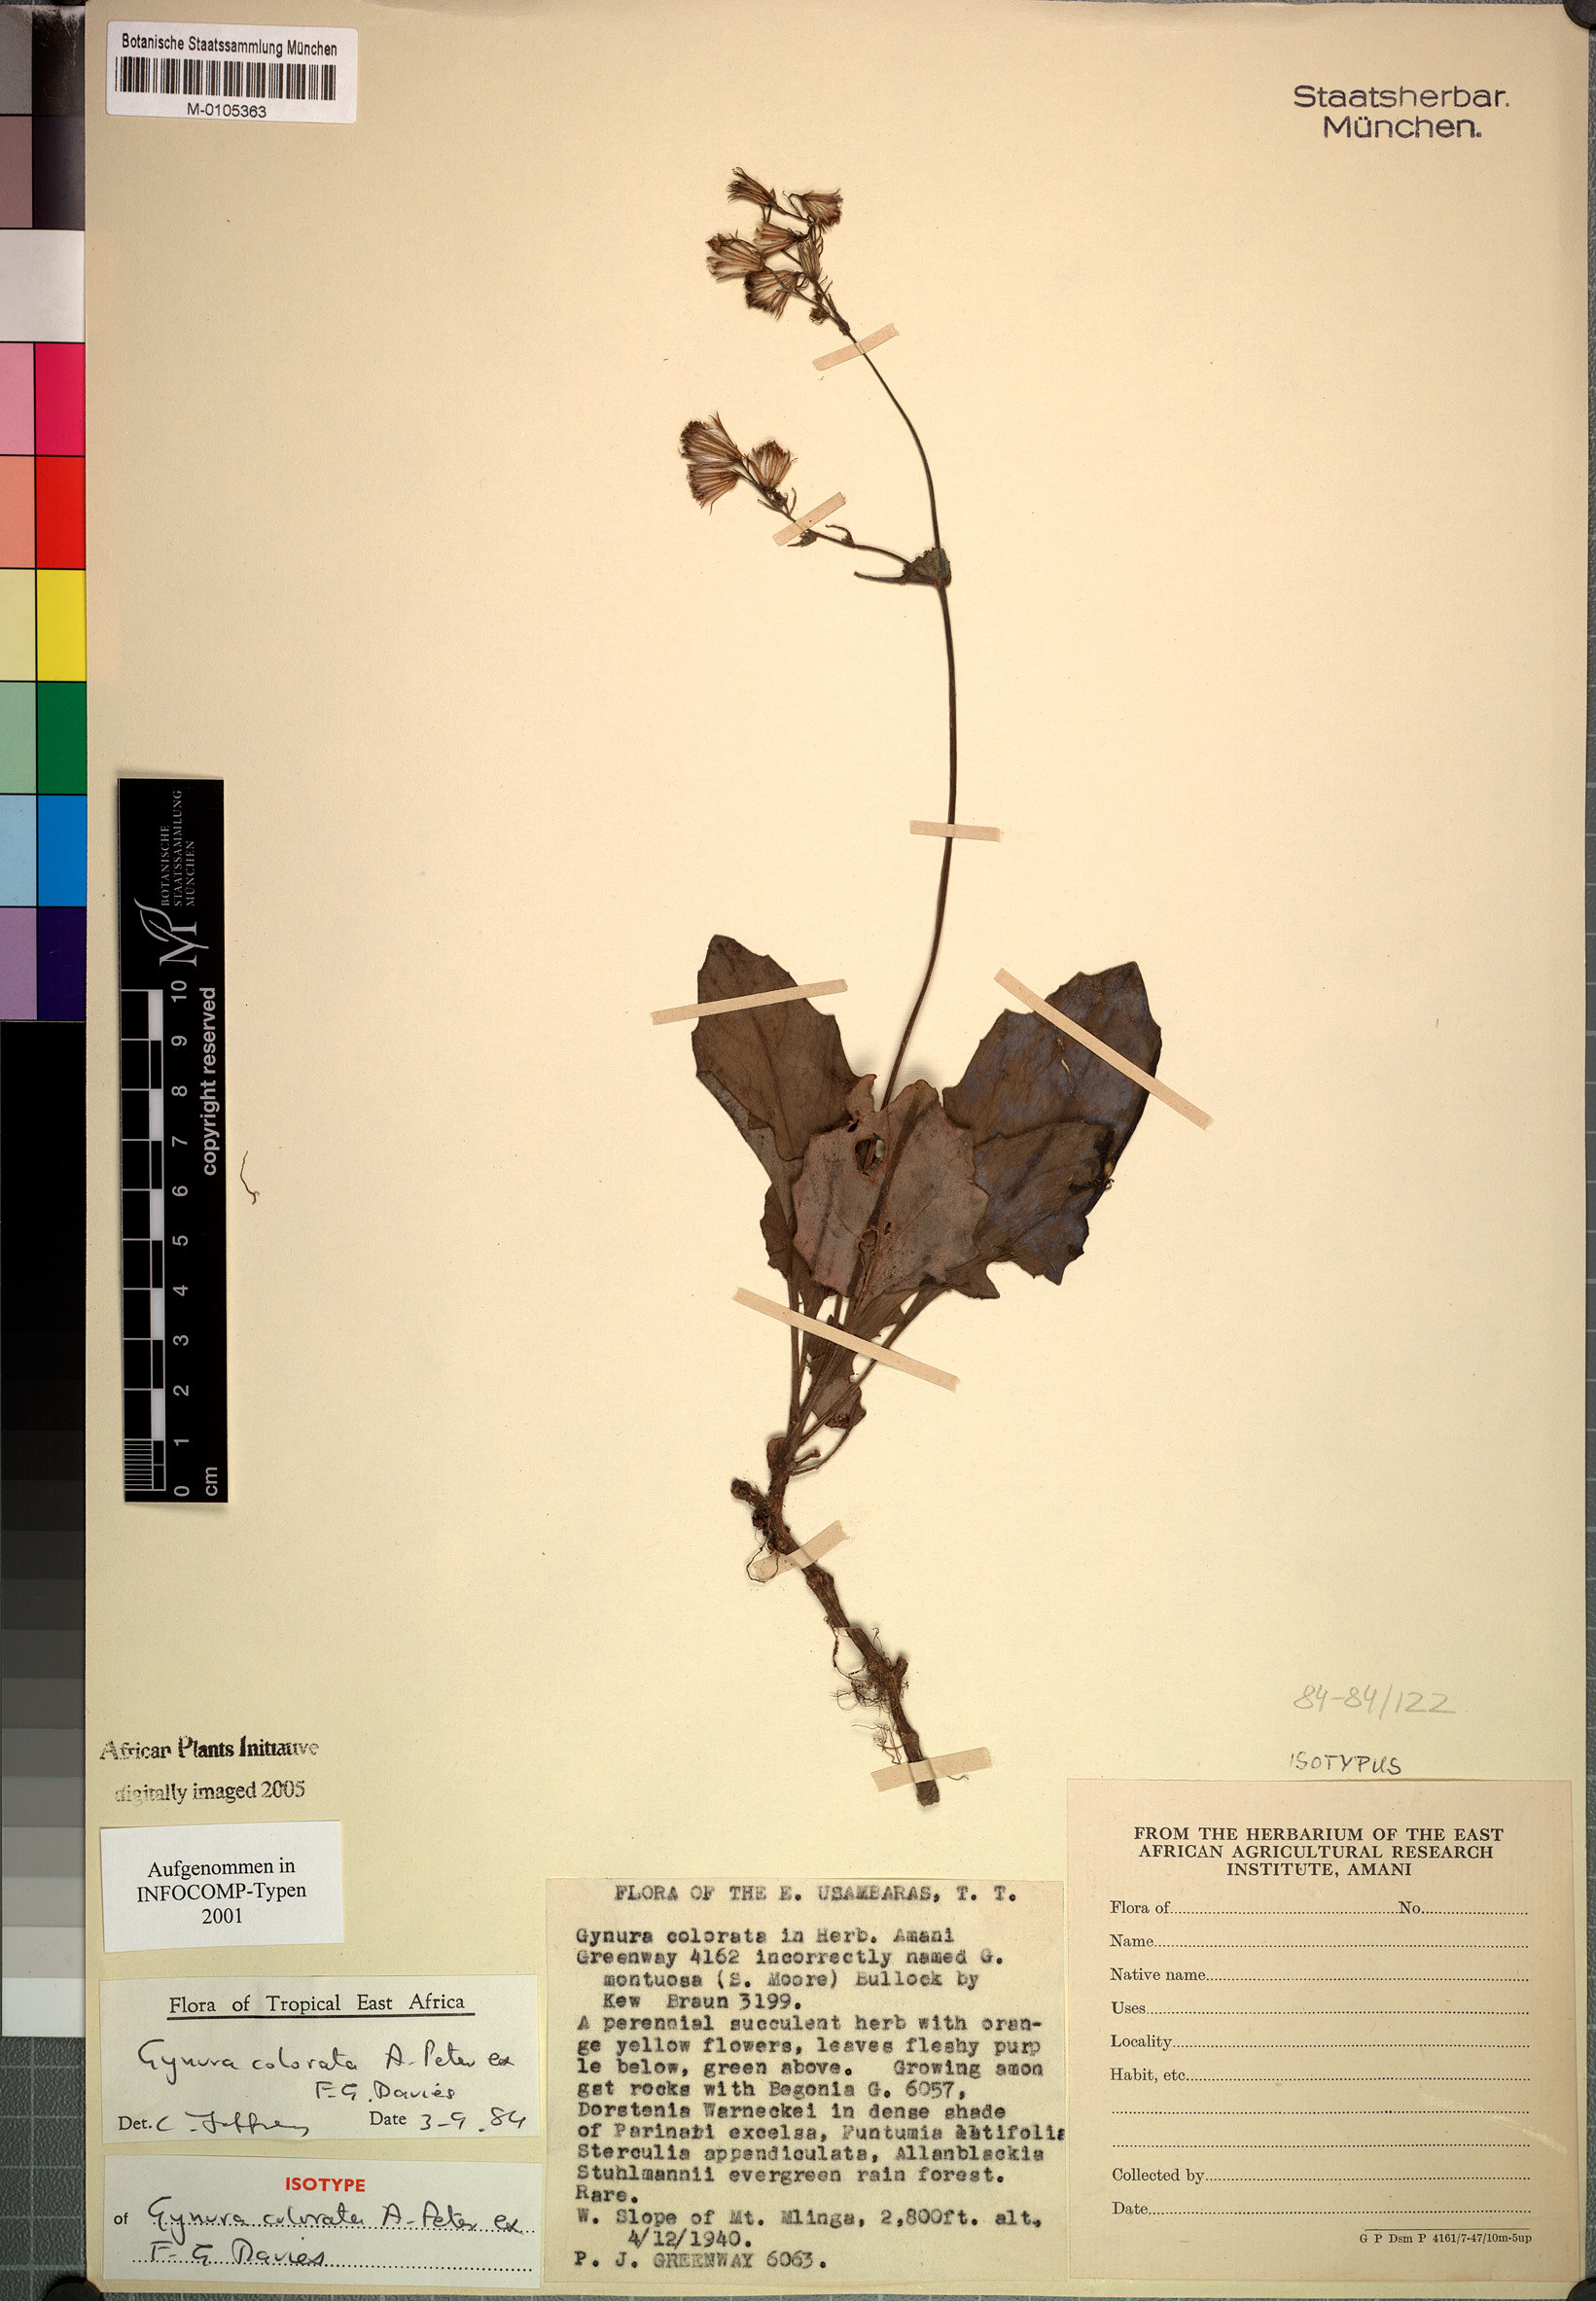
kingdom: Plantae
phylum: Tracheophyta
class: Magnoliopsida
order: Asterales
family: Asteraceae
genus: Gynura
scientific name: Gynura colorata
